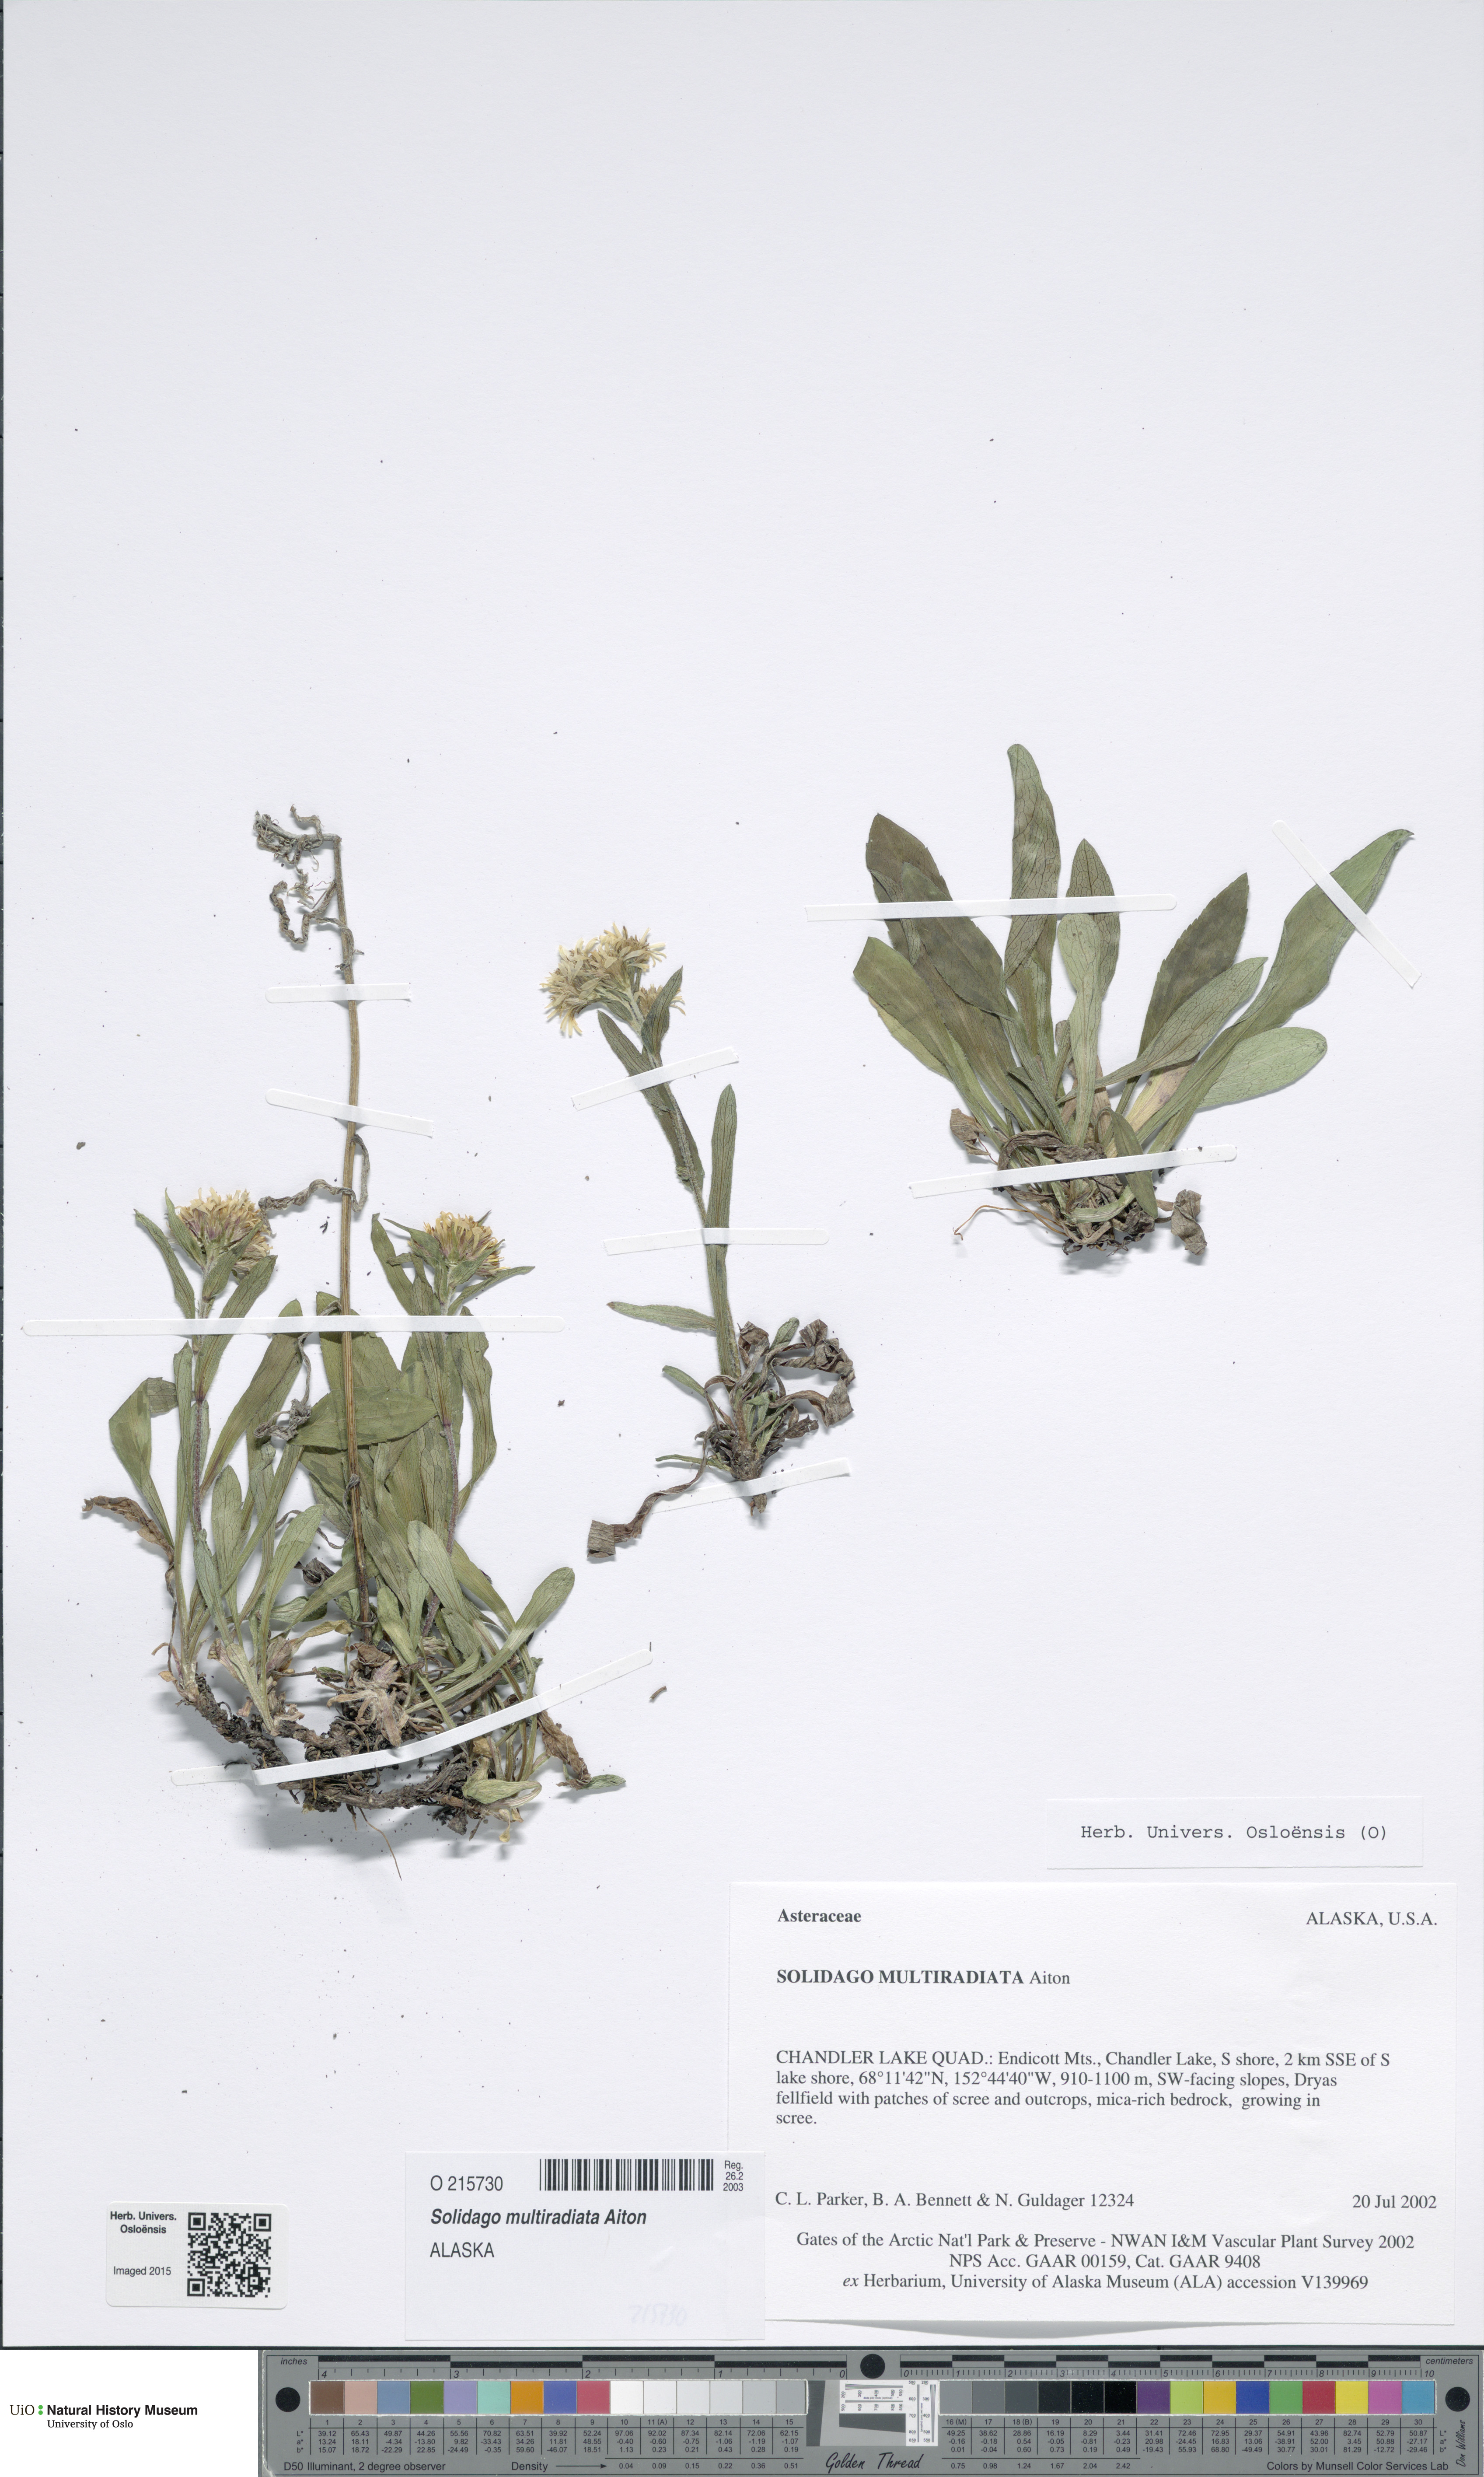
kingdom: Plantae
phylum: Tracheophyta
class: Magnoliopsida
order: Asterales
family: Asteraceae
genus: Solidago
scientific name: Solidago multiradiata
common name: Northern goldenrod
